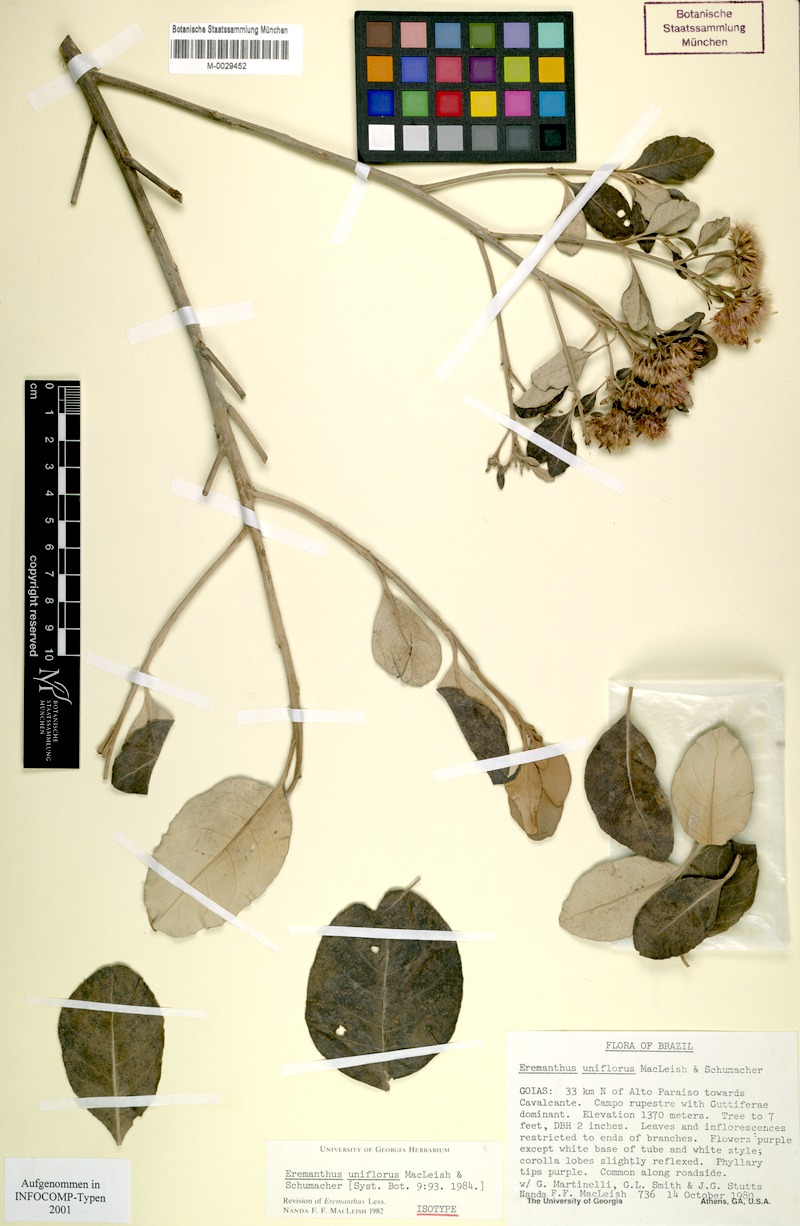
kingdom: Plantae
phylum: Tracheophyta
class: Magnoliopsida
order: Asterales
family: Asteraceae
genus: Eremanthus
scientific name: Eremanthus uniflorus
